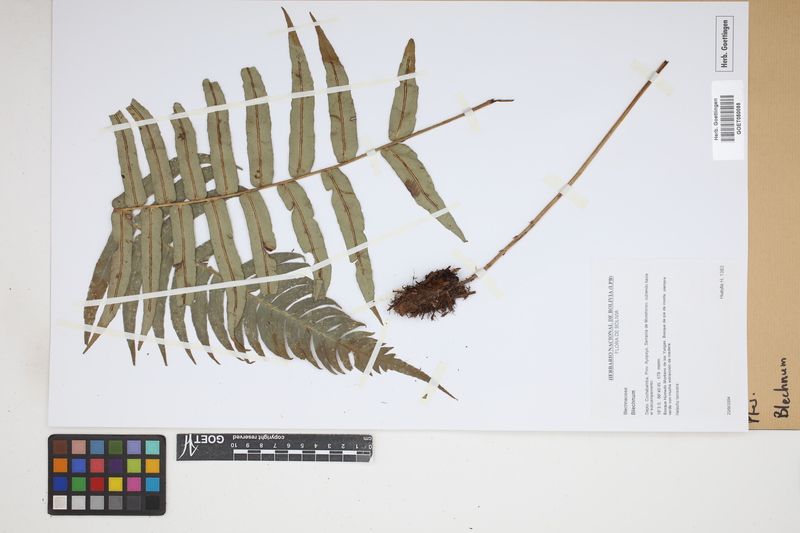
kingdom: Plantae
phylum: Tracheophyta
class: Polypodiopsida
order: Polypodiales
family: Blechnaceae
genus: Blechnum
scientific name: Blechnum
